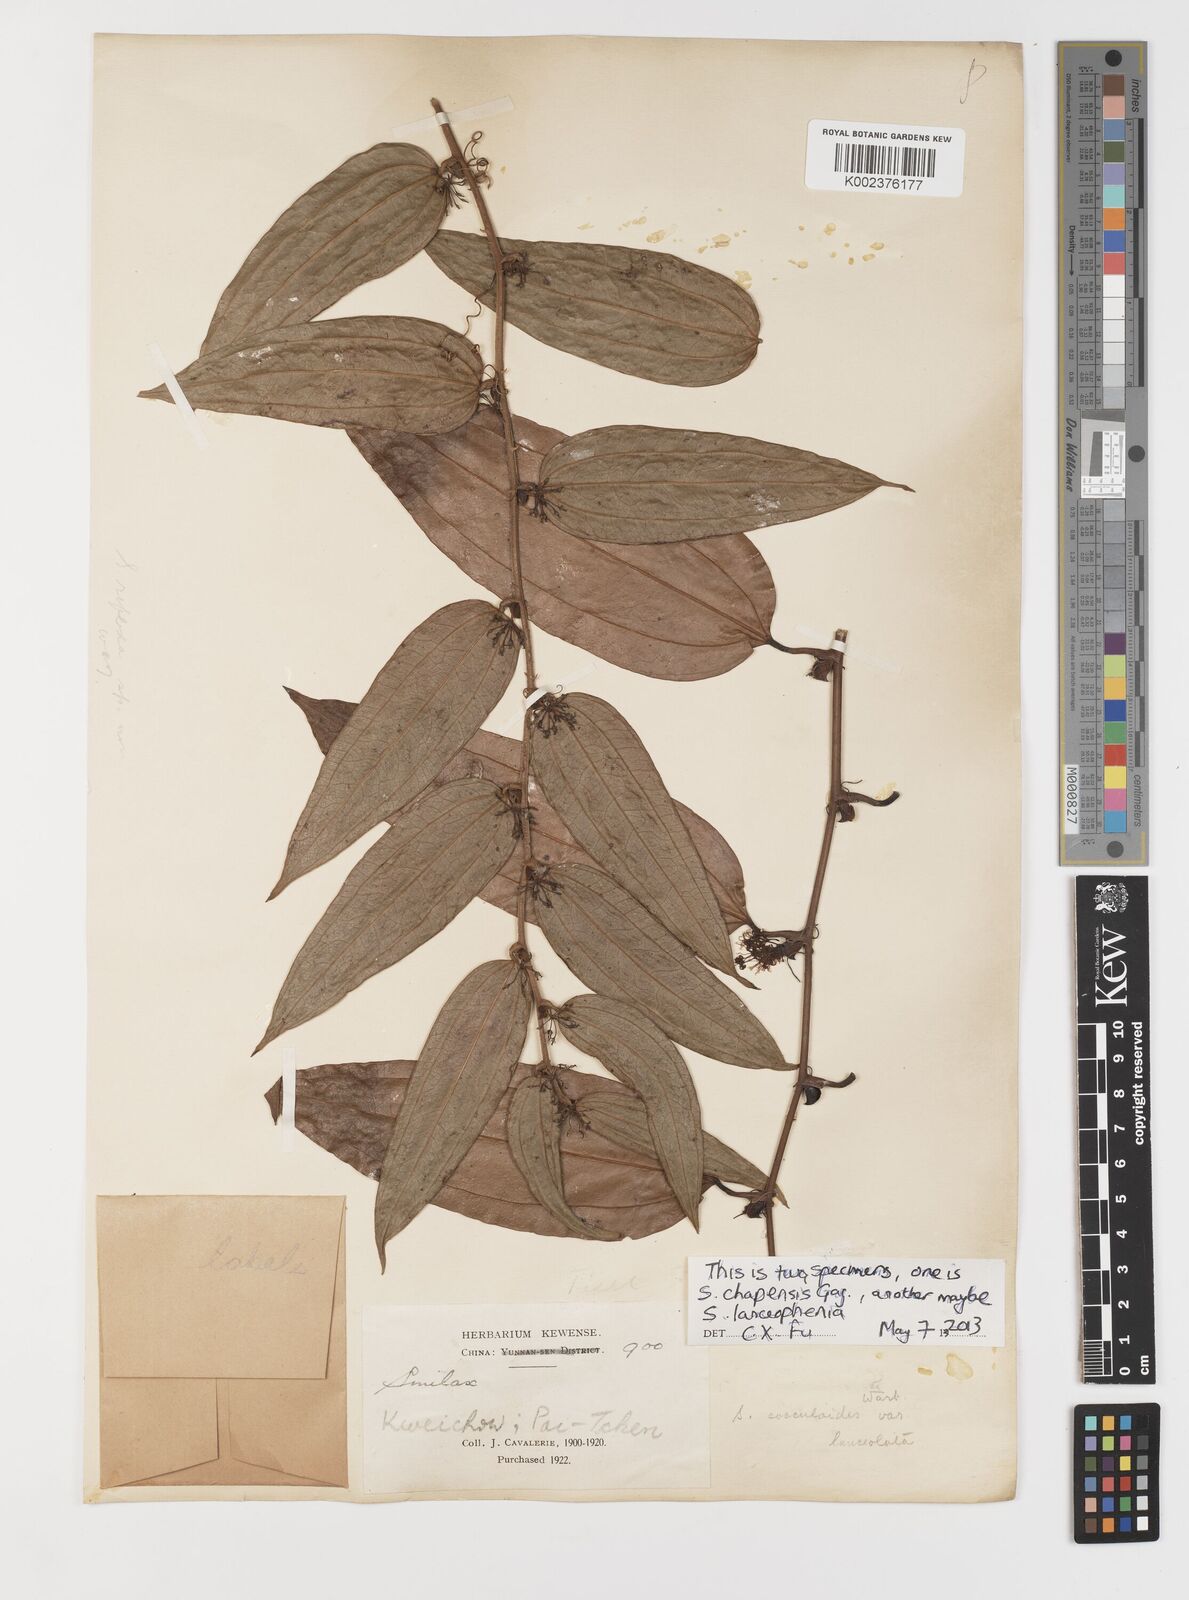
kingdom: Plantae
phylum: Tracheophyta
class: Liliopsida
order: Liliales
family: Smilacaceae
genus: Smilax
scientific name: Smilax chapaensis
